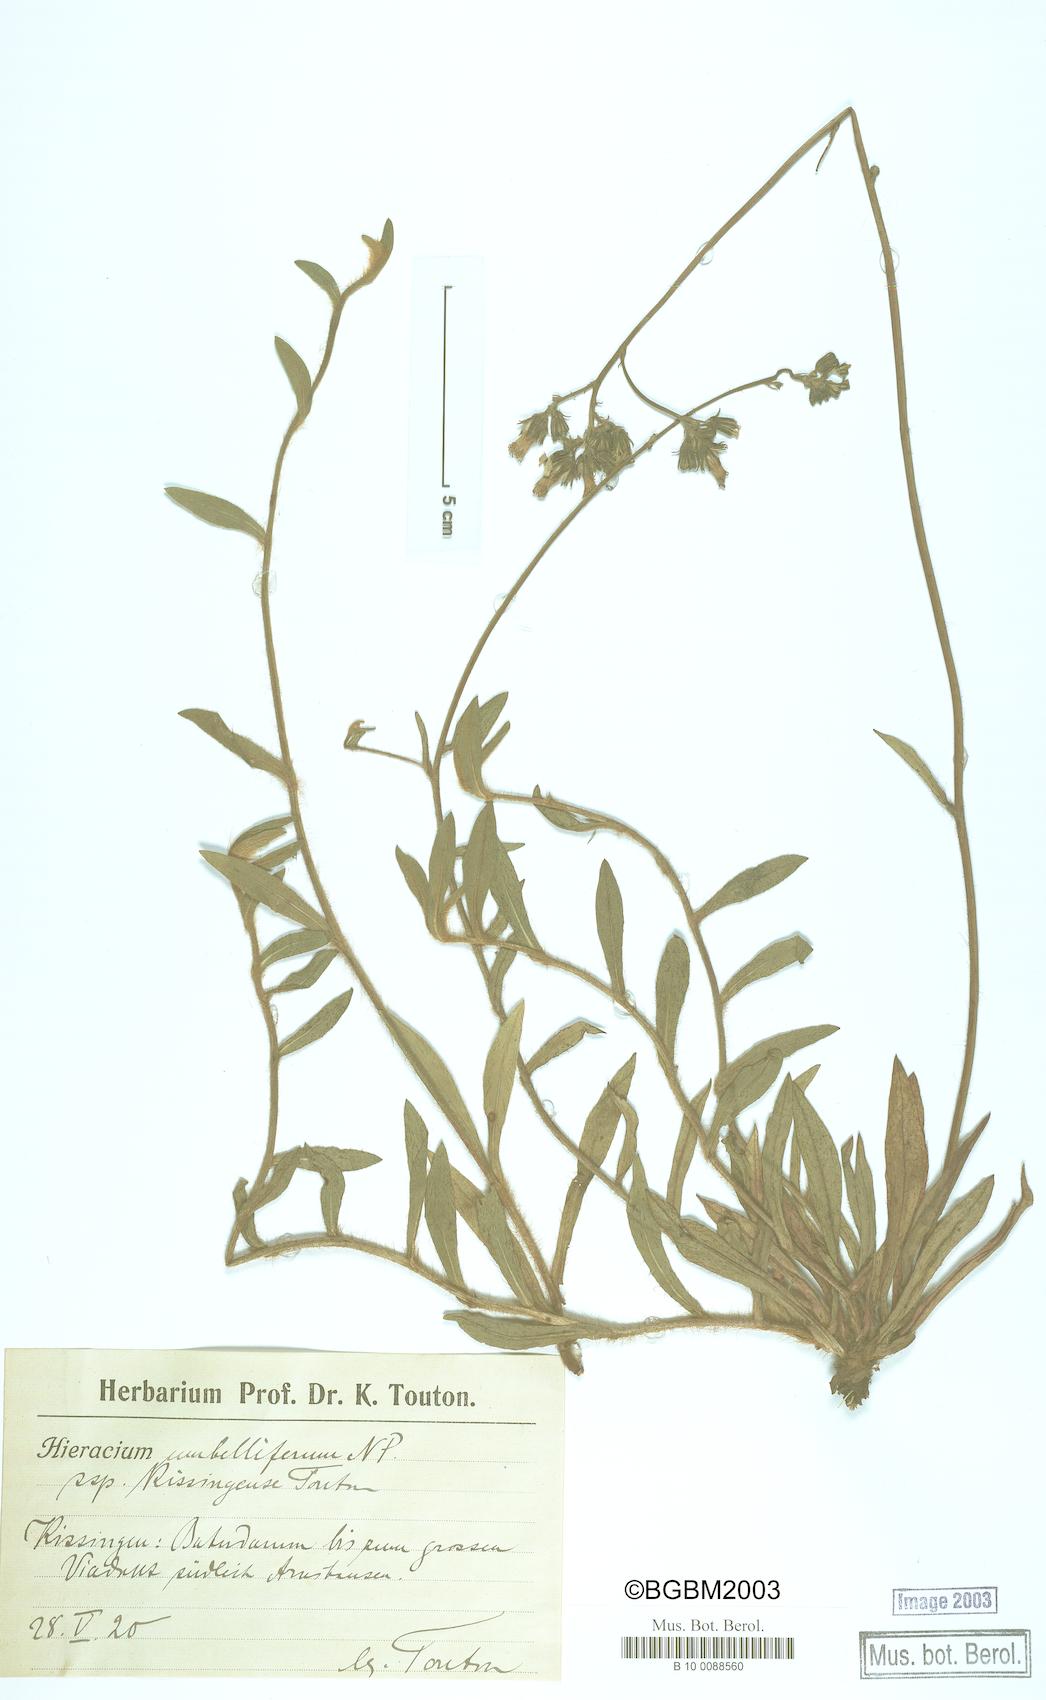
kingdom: Plantae
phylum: Tracheophyta
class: Magnoliopsida
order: Asterales
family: Asteraceae
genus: Pilosella
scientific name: Pilosella densiflora
